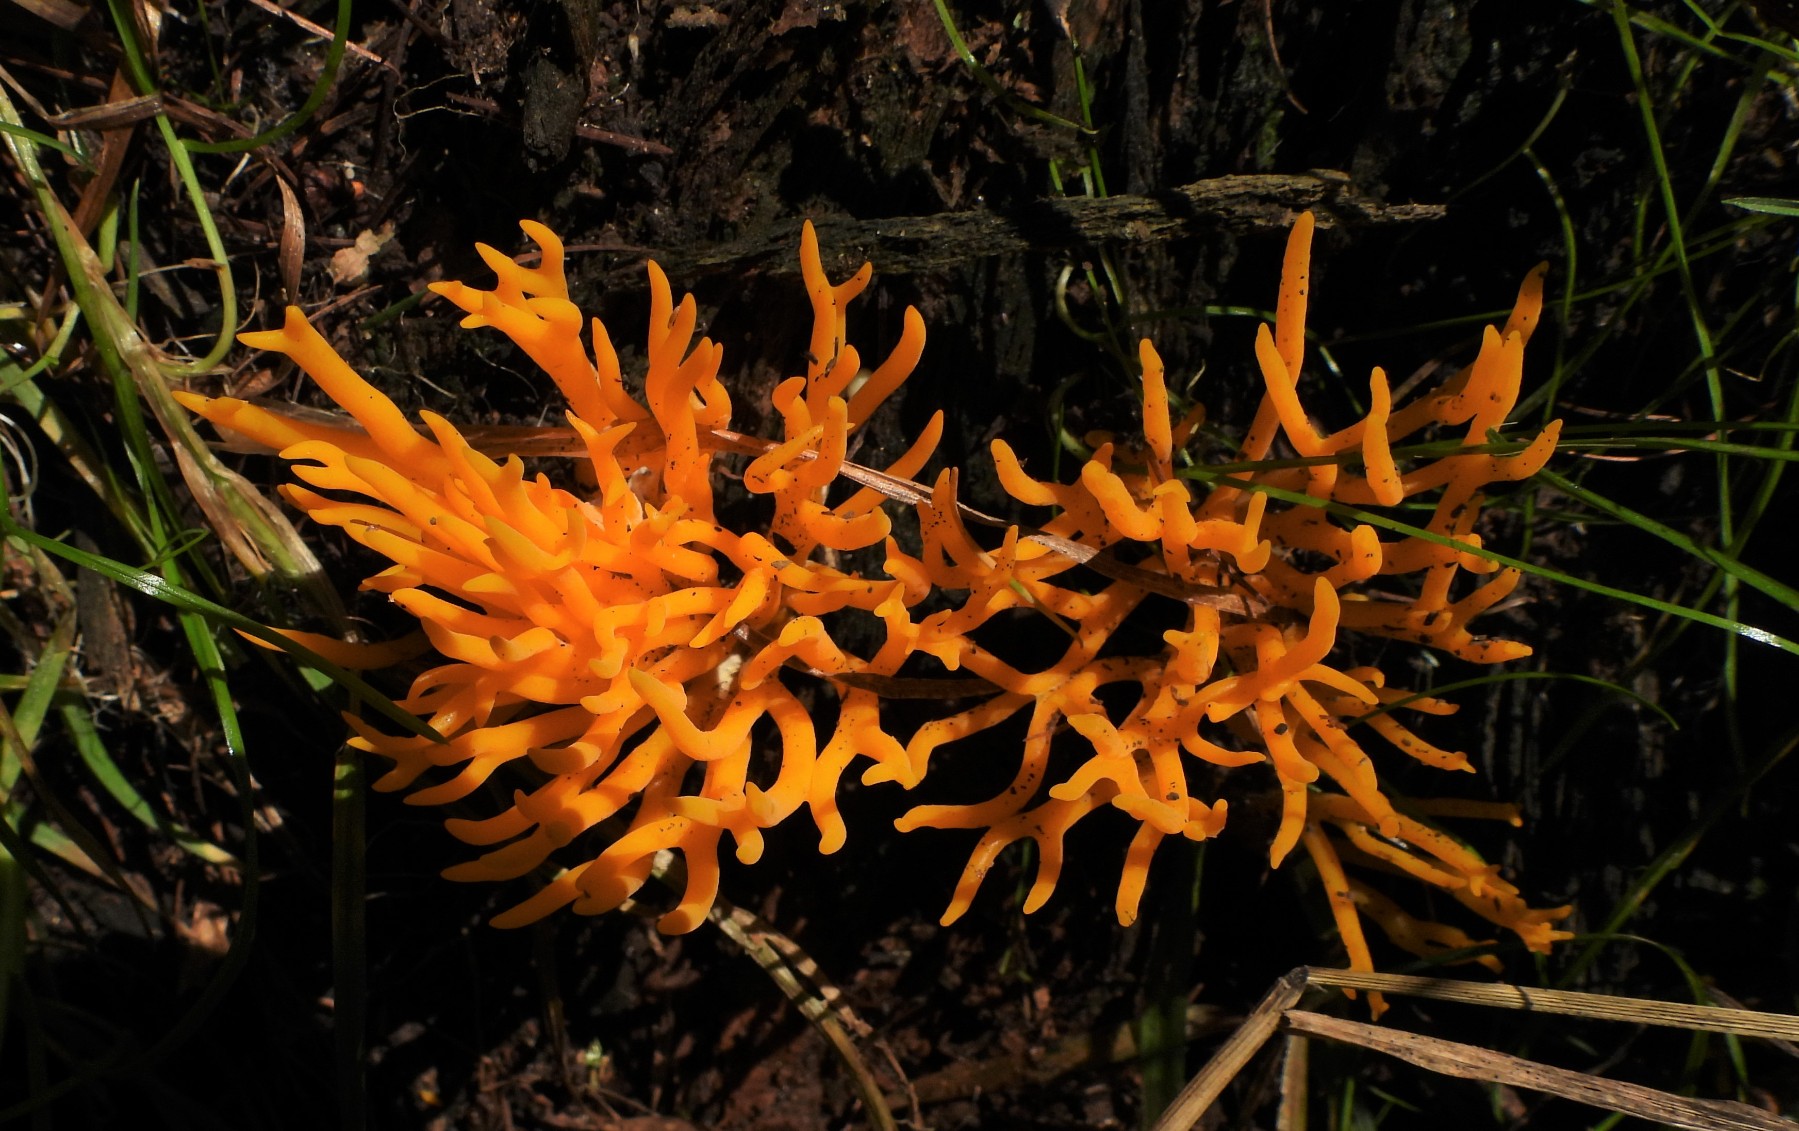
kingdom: Fungi
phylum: Basidiomycota
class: Dacrymycetes
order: Dacrymycetales
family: Dacrymycetaceae
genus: Calocera
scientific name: Calocera viscosa
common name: almindelig guldgaffel
